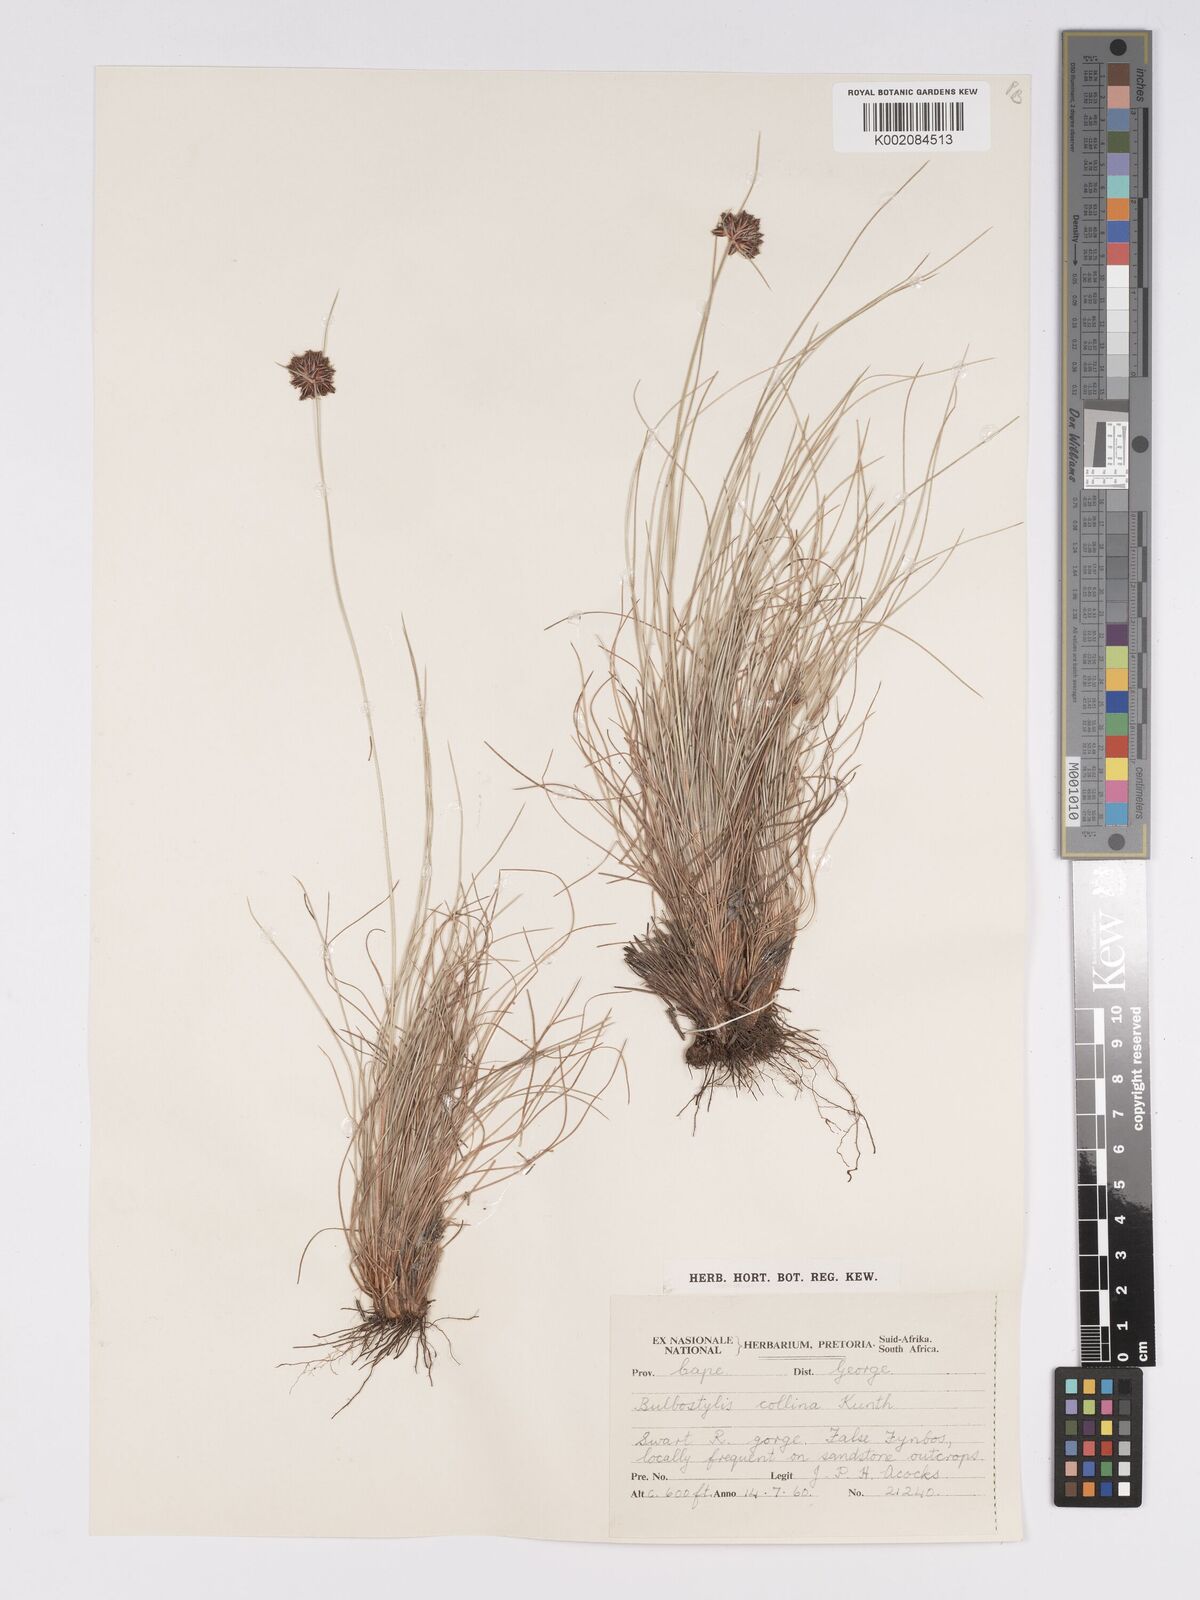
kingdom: Plantae
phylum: Tracheophyta
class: Liliopsida
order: Poales
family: Cyperaceae
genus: Bulbostylis
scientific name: Bulbostylis contexta
